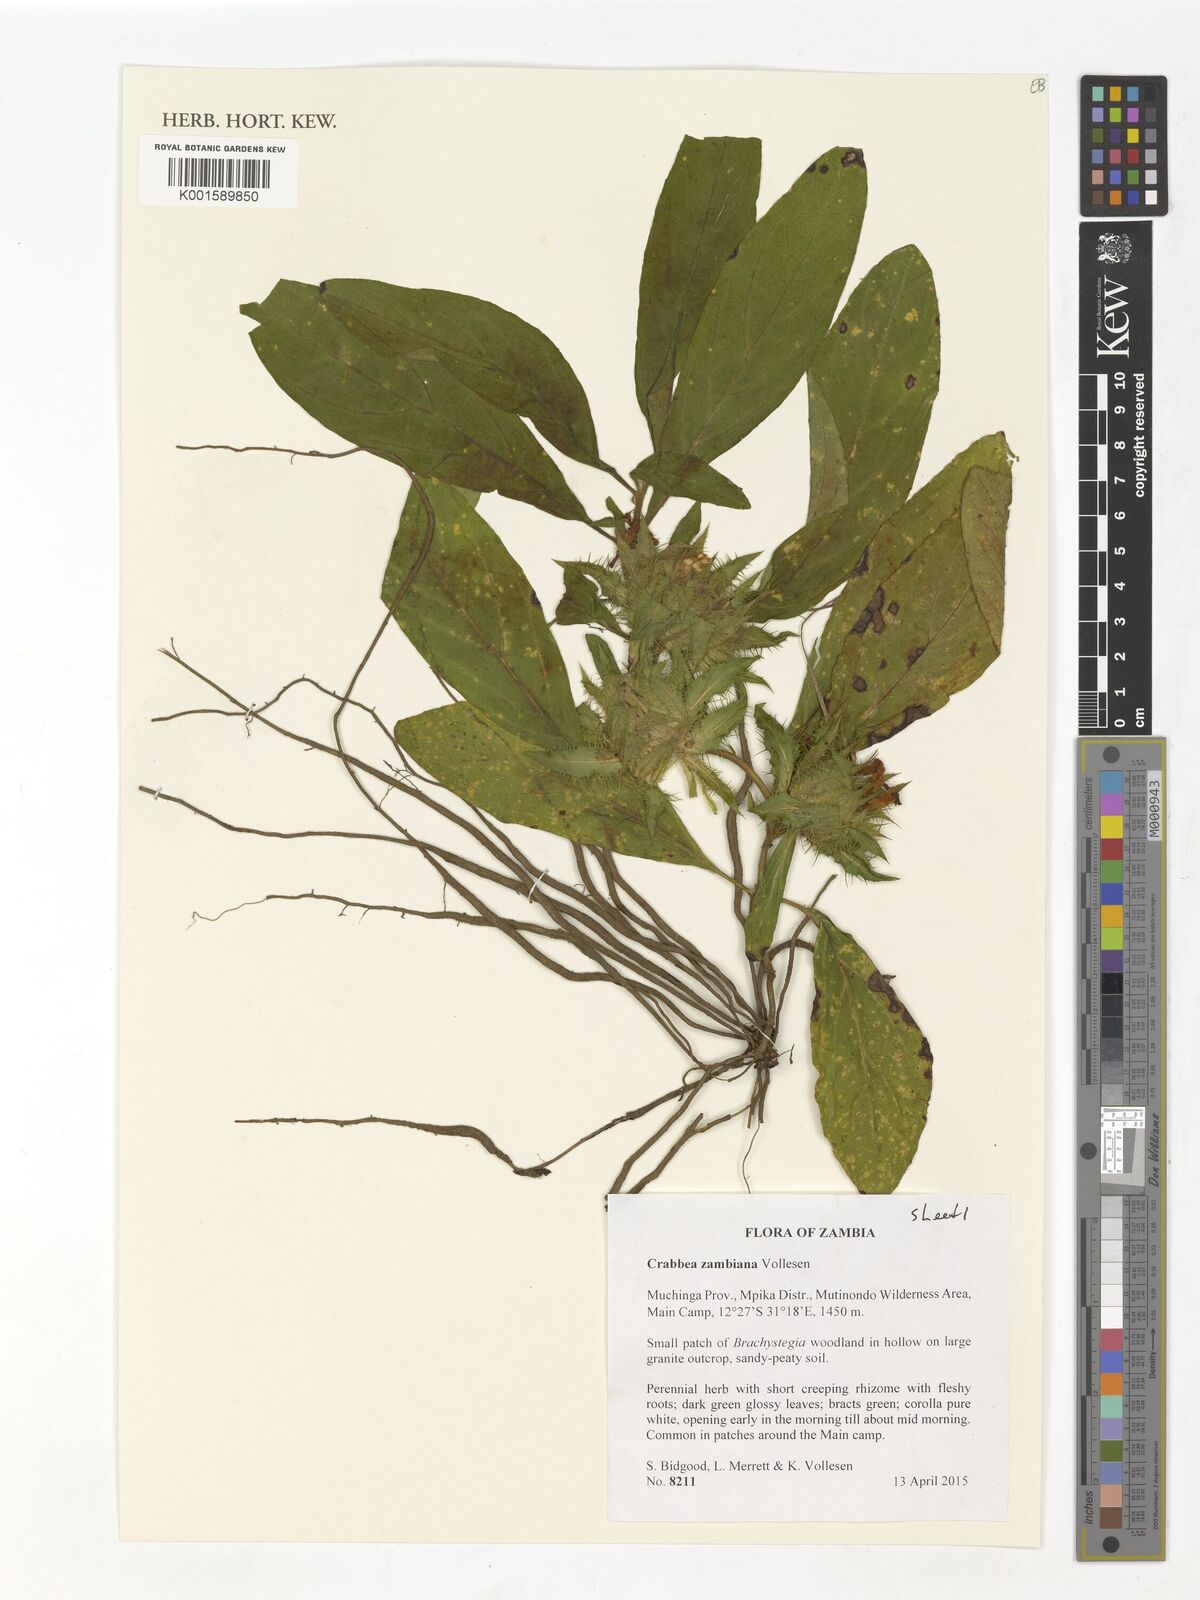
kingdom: Plantae
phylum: Tracheophyta
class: Magnoliopsida
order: Lamiales
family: Acanthaceae
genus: Crabbea
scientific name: Crabbea zambiana
